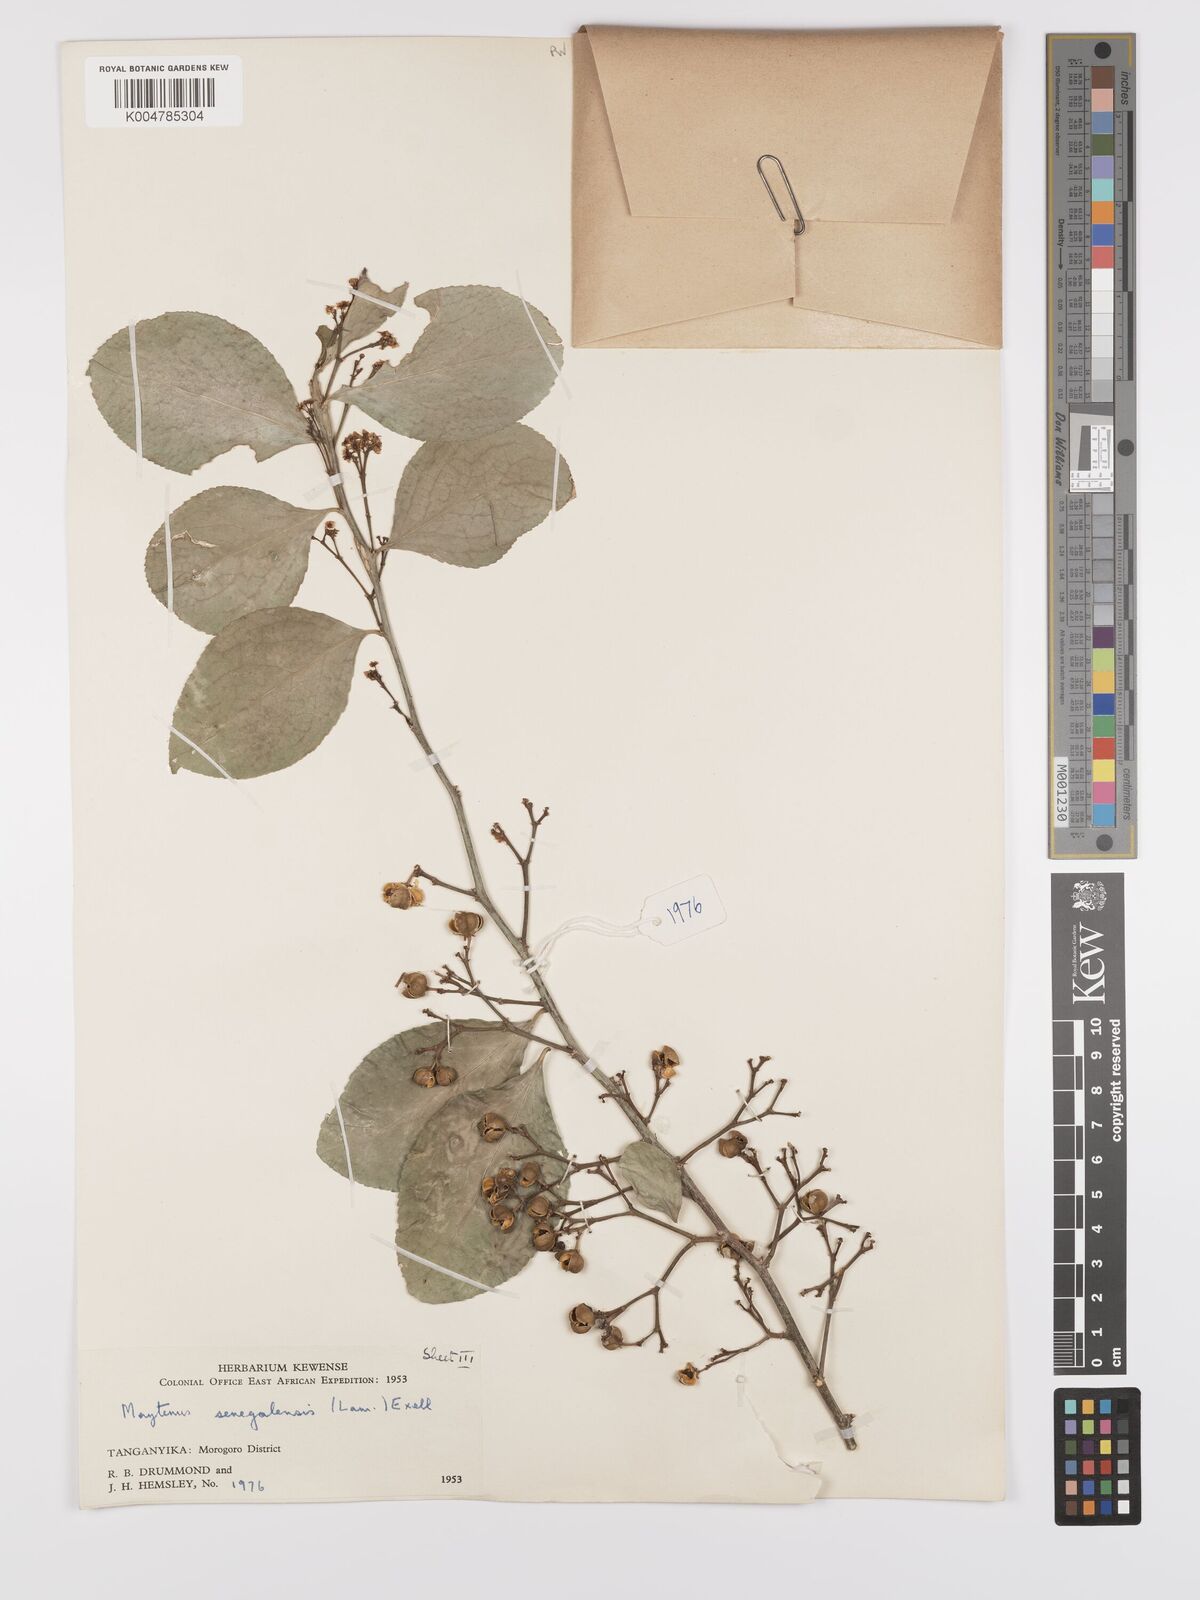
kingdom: Plantae
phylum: Tracheophyta
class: Magnoliopsida
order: Celastrales
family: Celastraceae
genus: Gymnosporia
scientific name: Gymnosporia nguruensis
